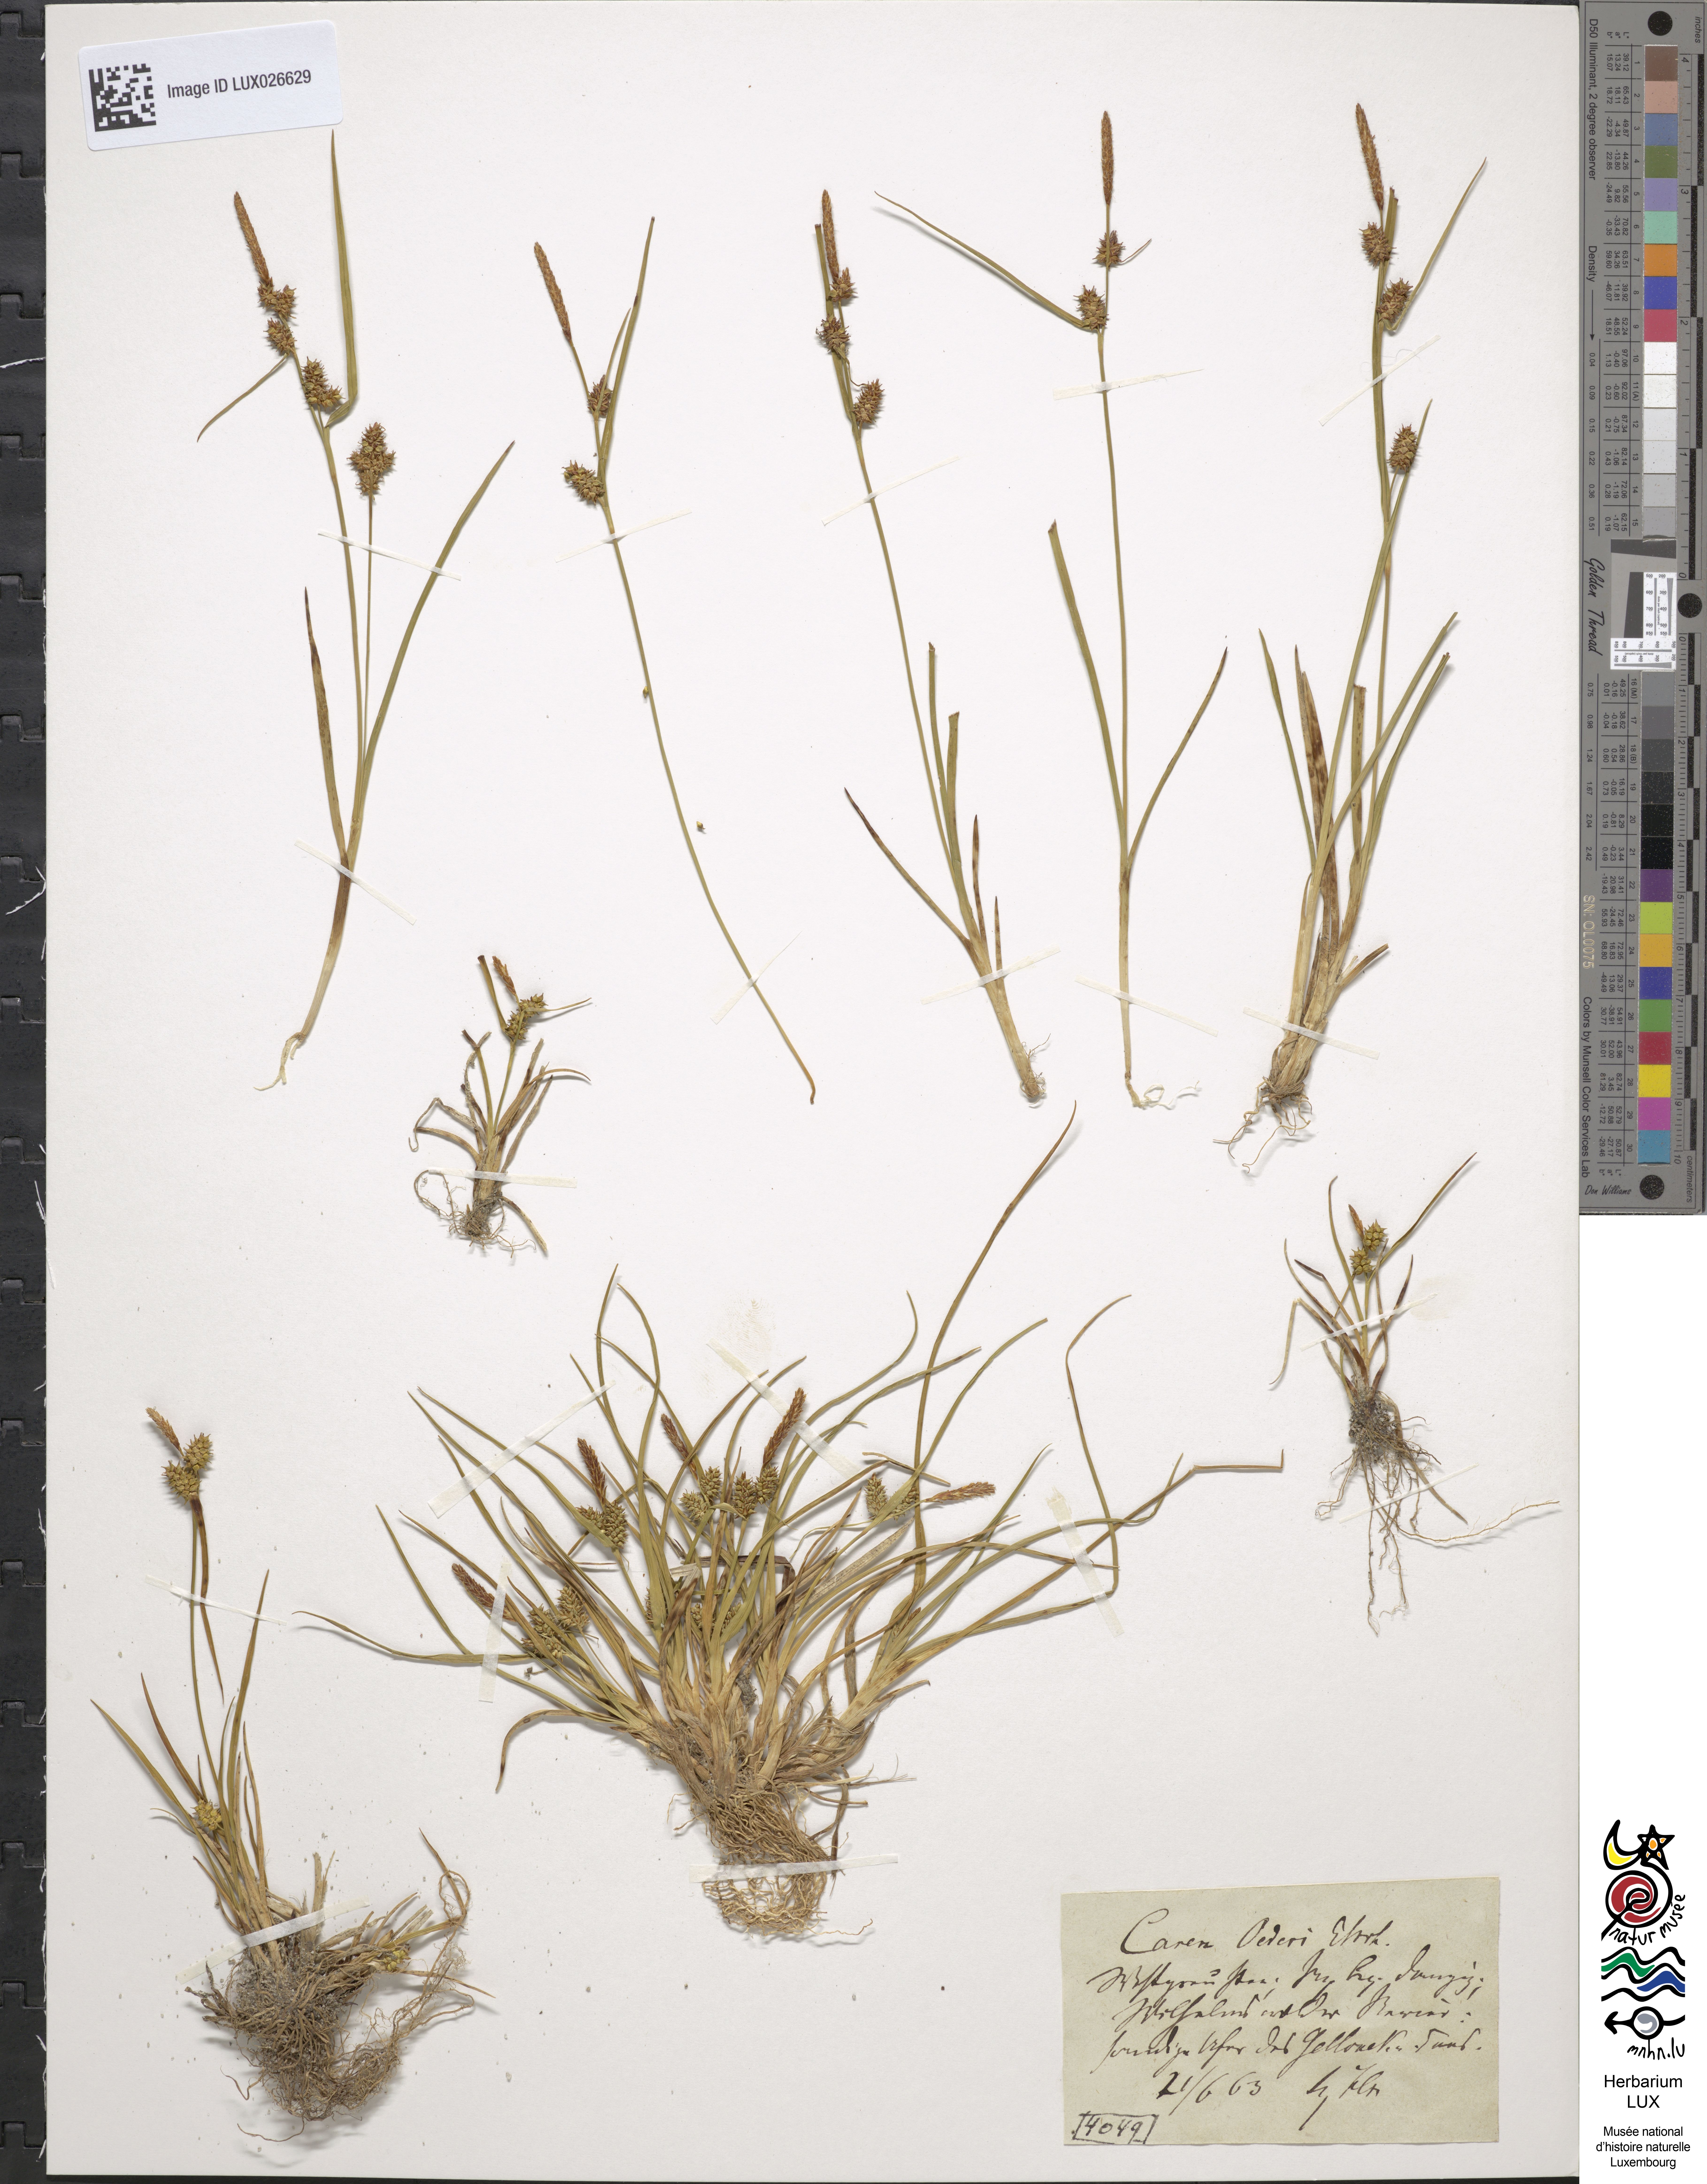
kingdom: Plantae
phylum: Tracheophyta
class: Liliopsida
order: Poales
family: Cyperaceae
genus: Carex
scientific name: Carex oederi
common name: Common & small-fruited yellow-sedge
